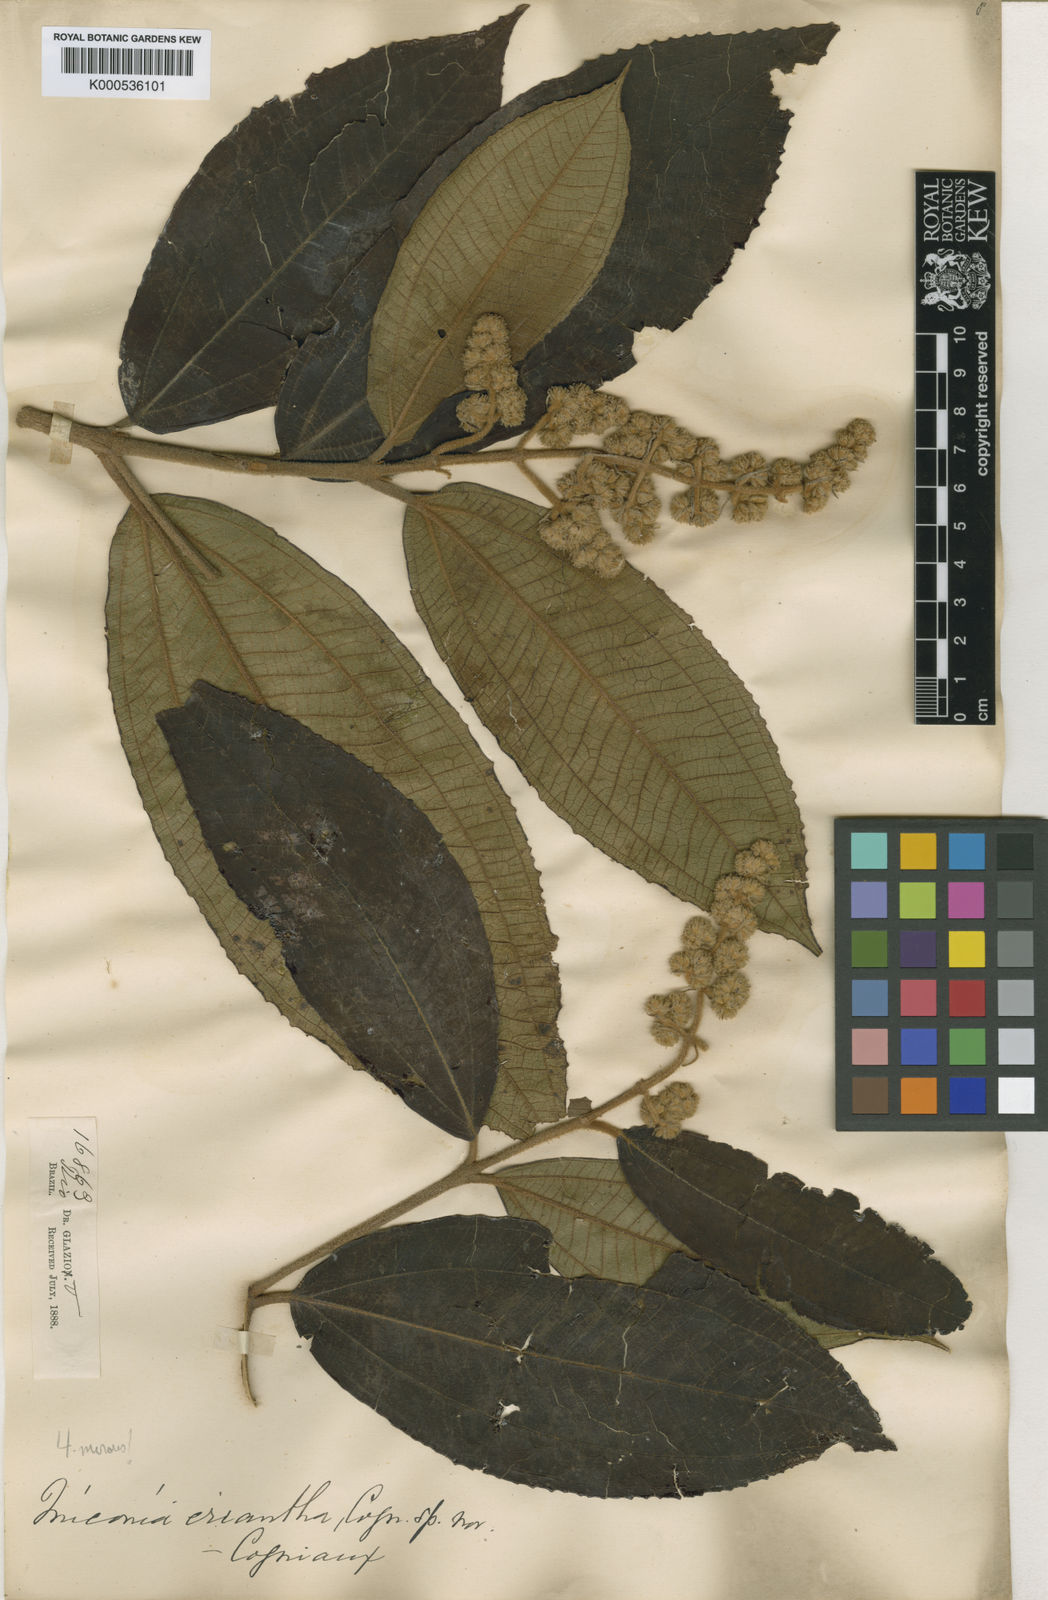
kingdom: Plantae
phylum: Tracheophyta
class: Magnoliopsida
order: Myrtales
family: Melastomataceae
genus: Miconia
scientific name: Miconia racemifera
